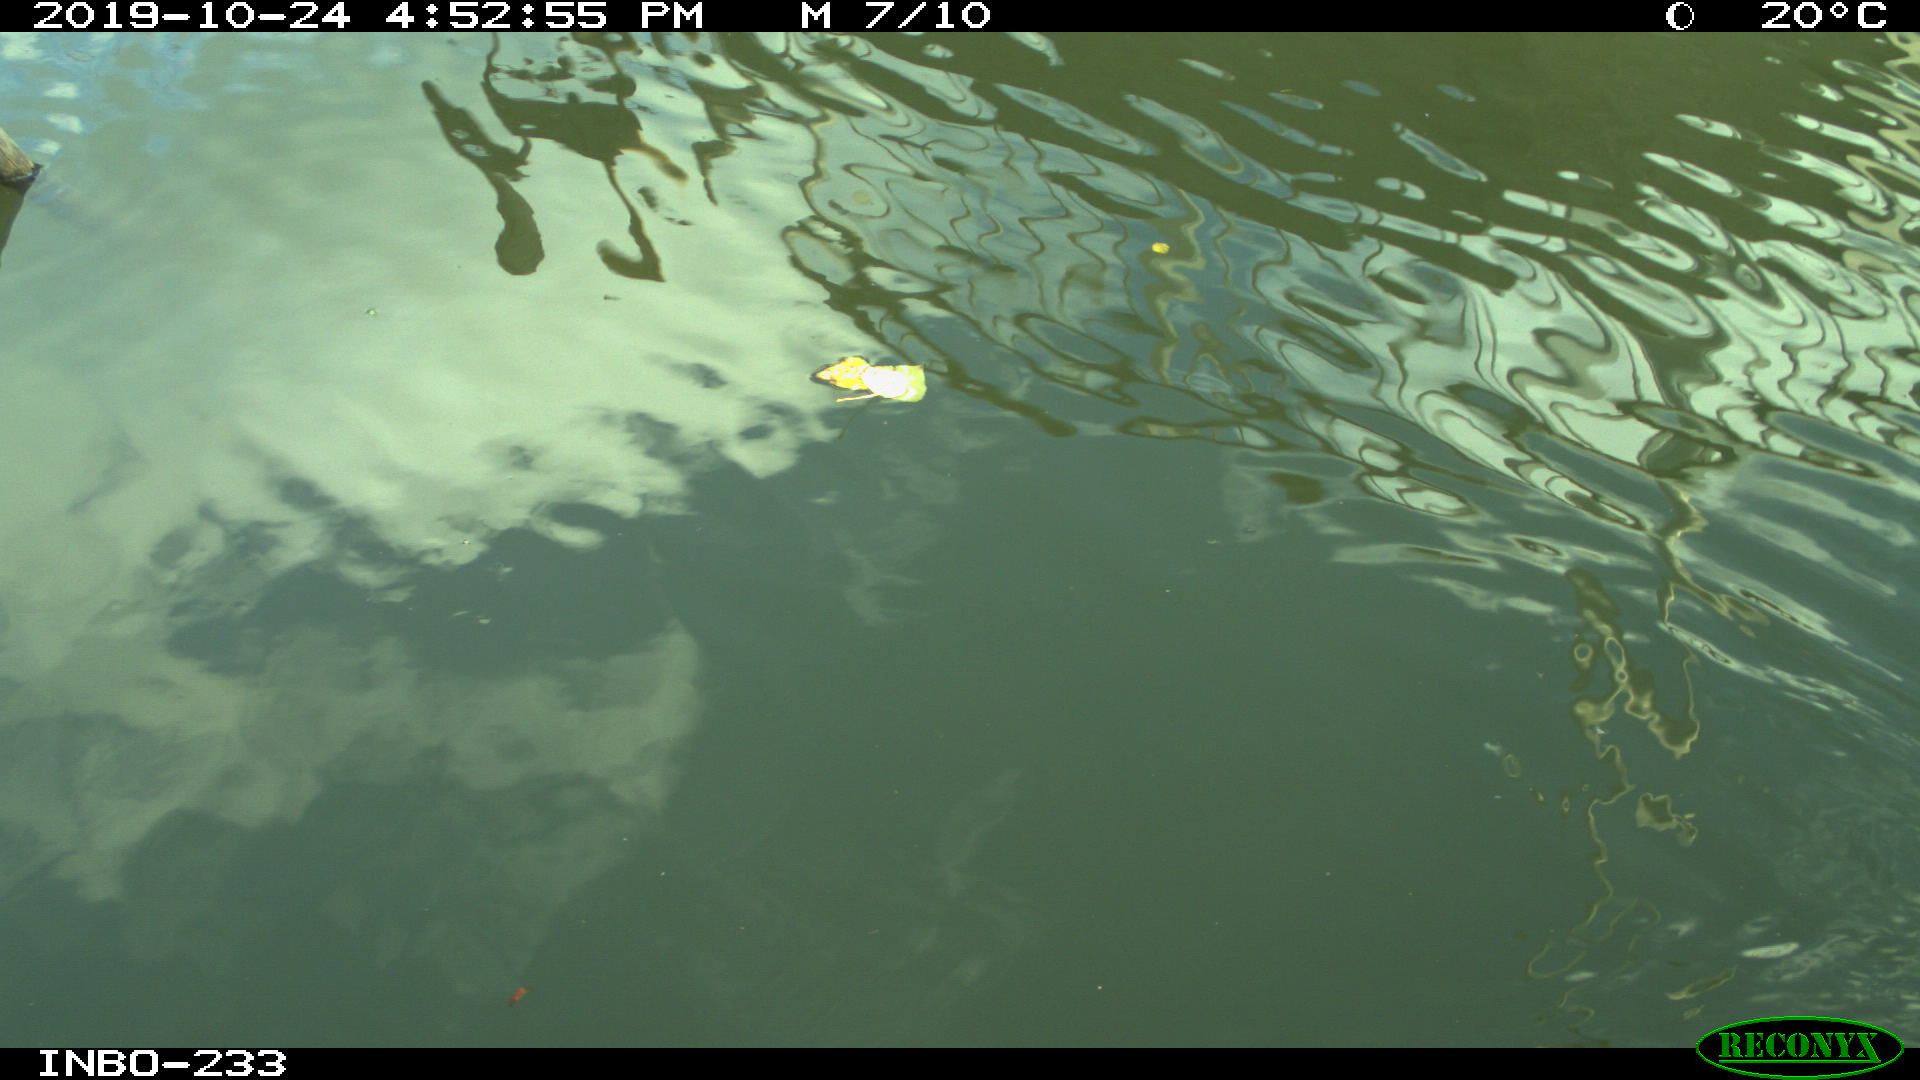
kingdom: Animalia
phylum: Chordata
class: Aves
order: Gruiformes
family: Rallidae
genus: Gallinula
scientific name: Gallinula chloropus
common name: Common moorhen
